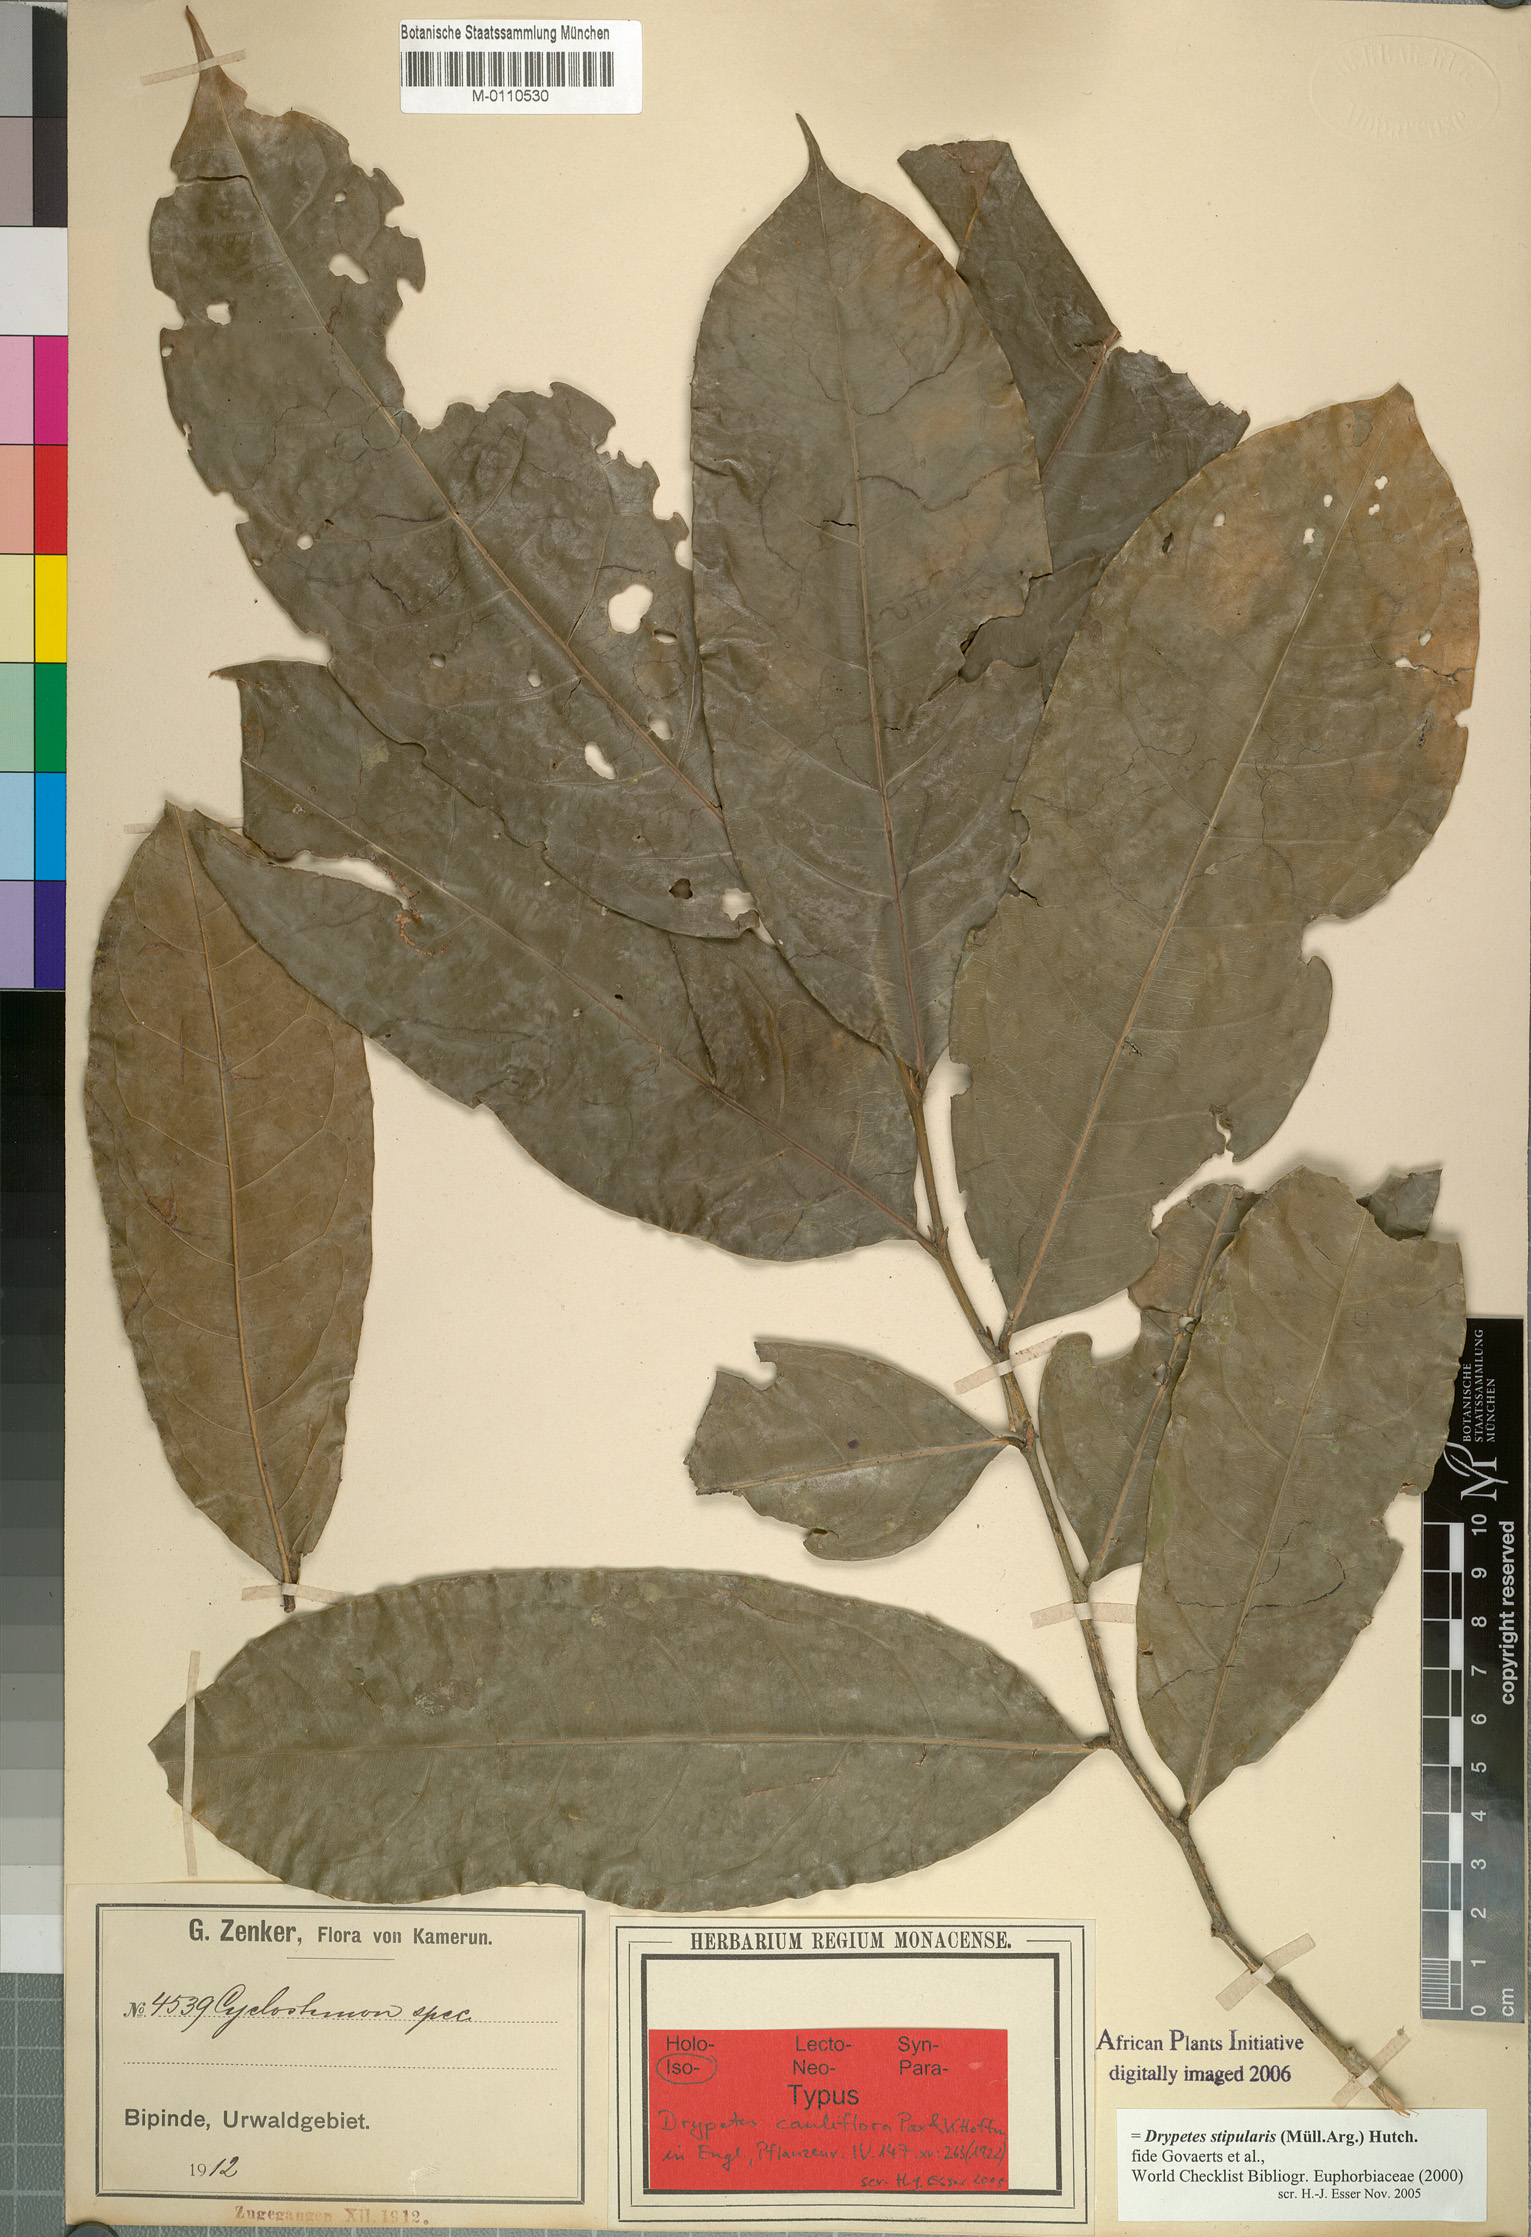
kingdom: Plantae
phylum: Tracheophyta
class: Magnoliopsida
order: Malpighiales
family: Putranjivaceae
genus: Drypetes
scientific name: Drypetes stipularis
